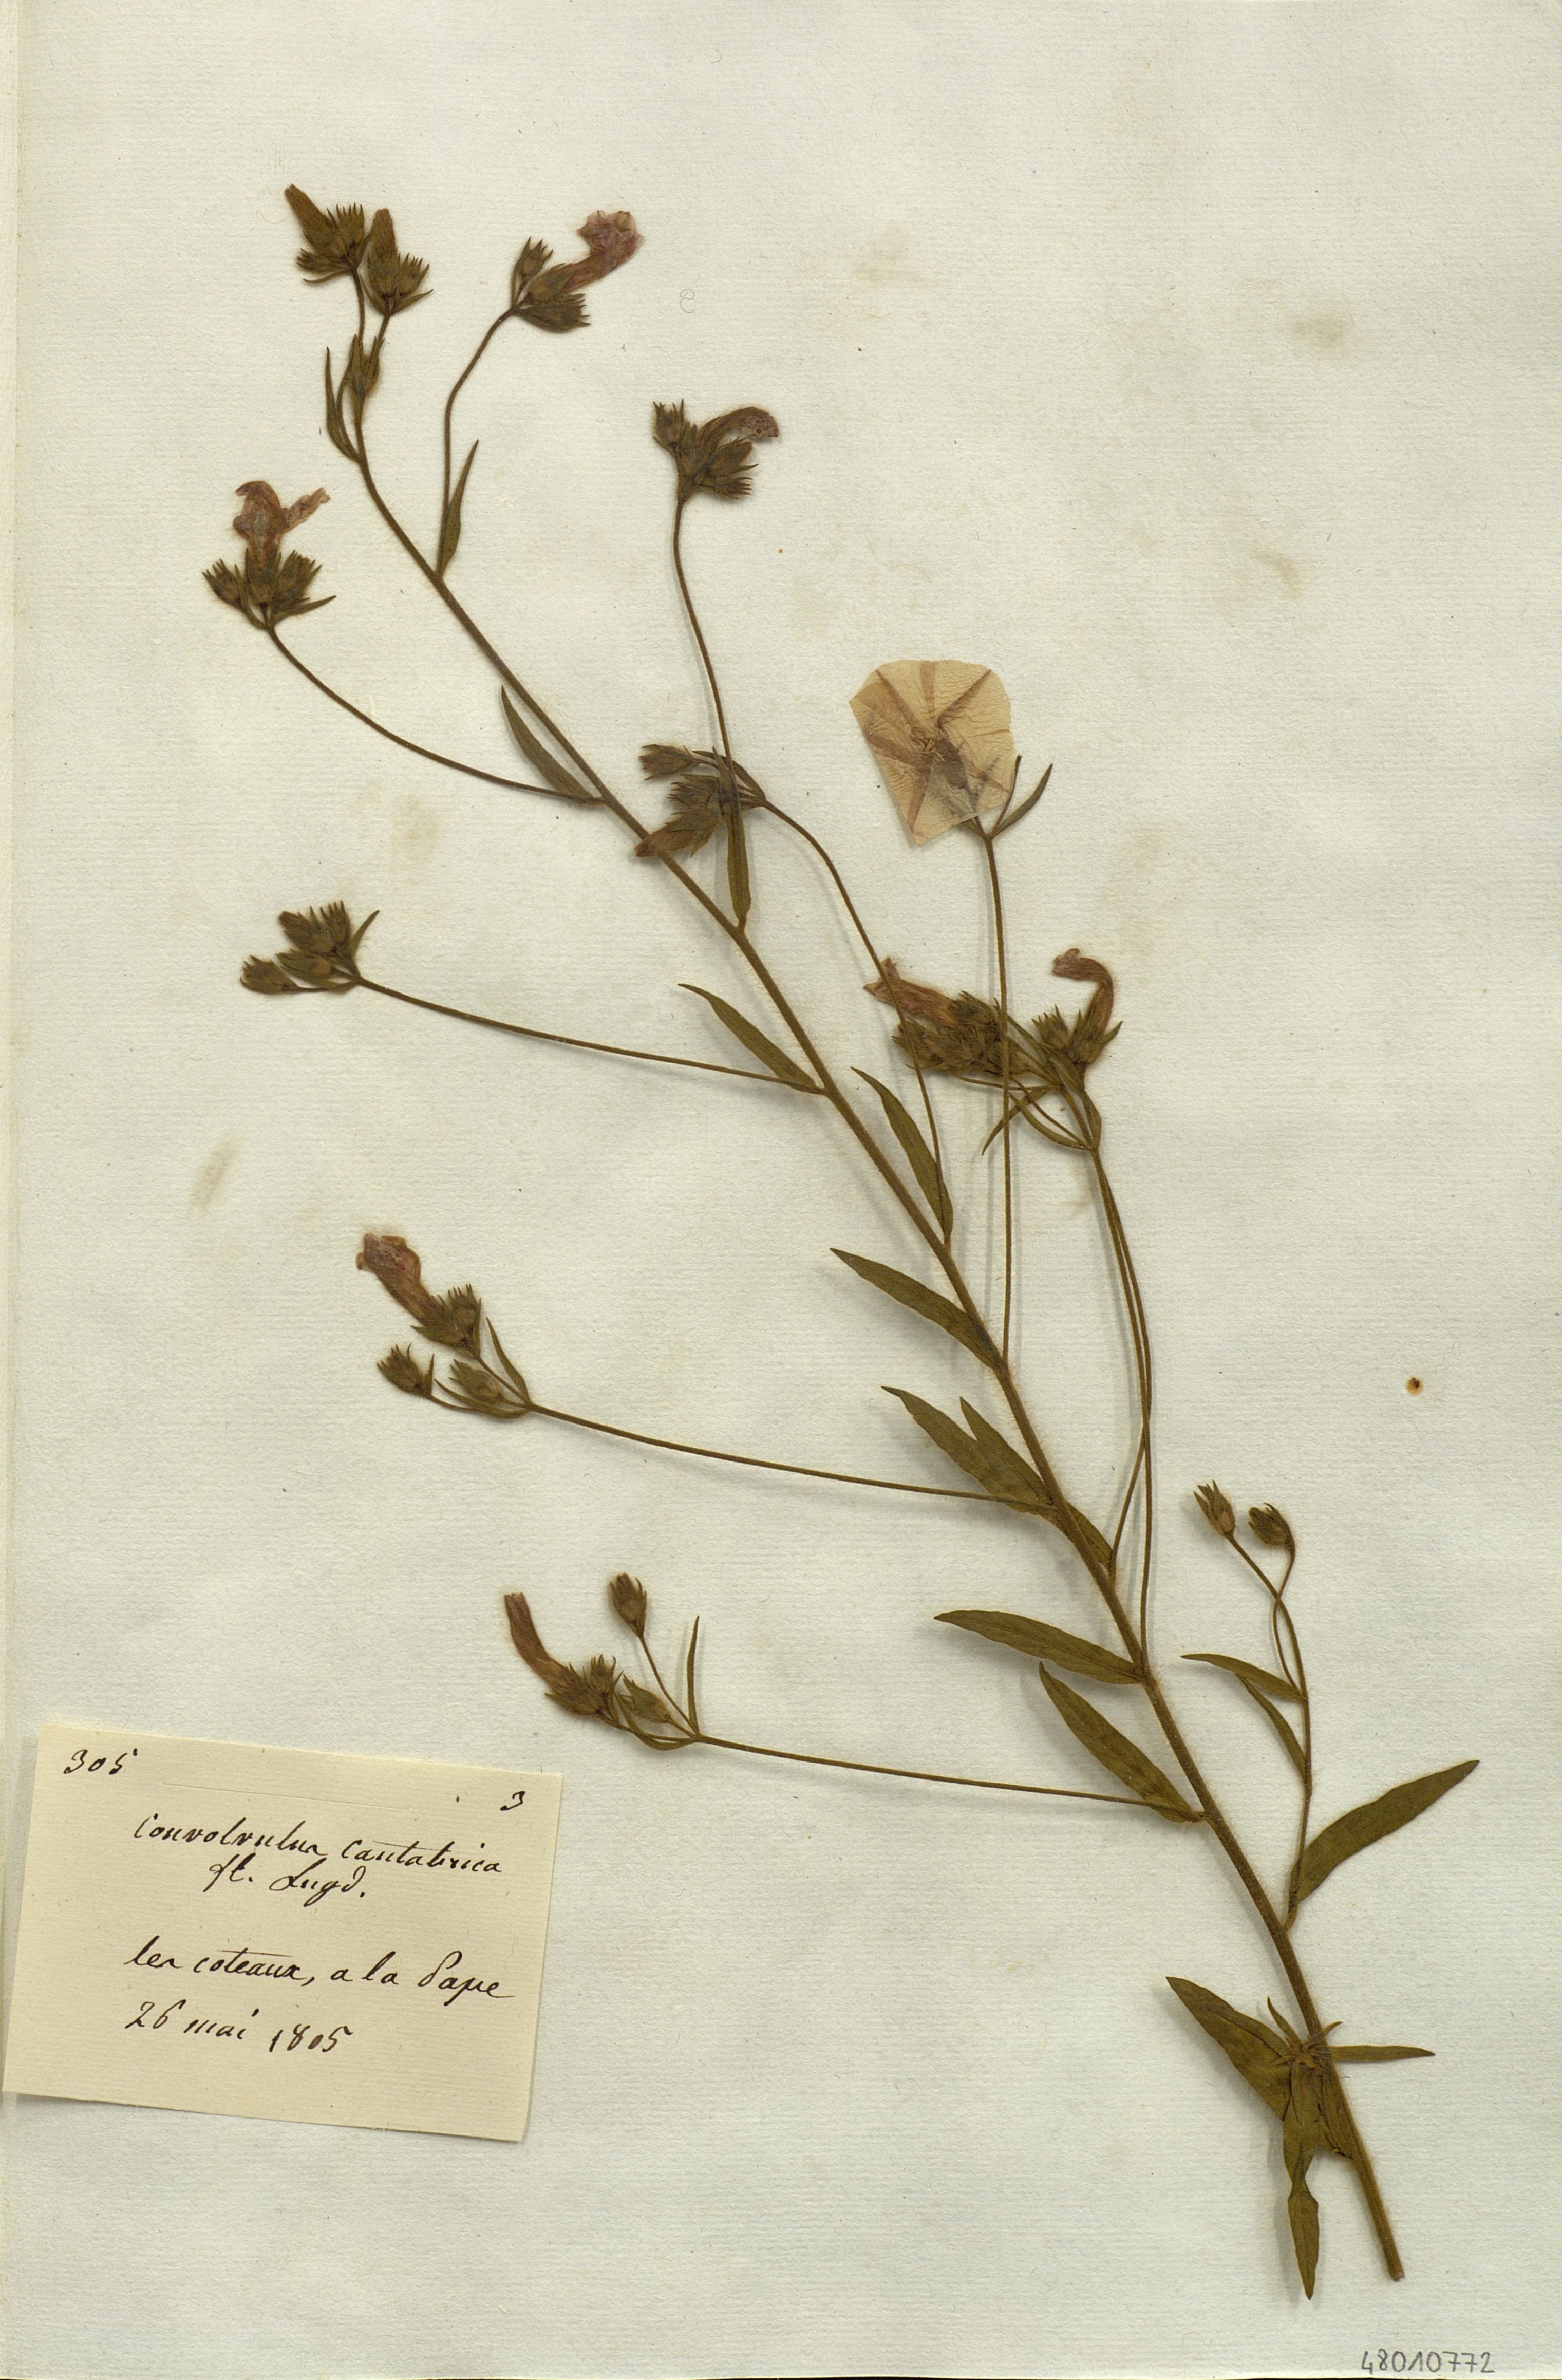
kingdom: Plantae
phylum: Tracheophyta
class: Magnoliopsida
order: Solanales
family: Convolvulaceae
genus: Convolvulus
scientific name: Convolvulus cantabrica
